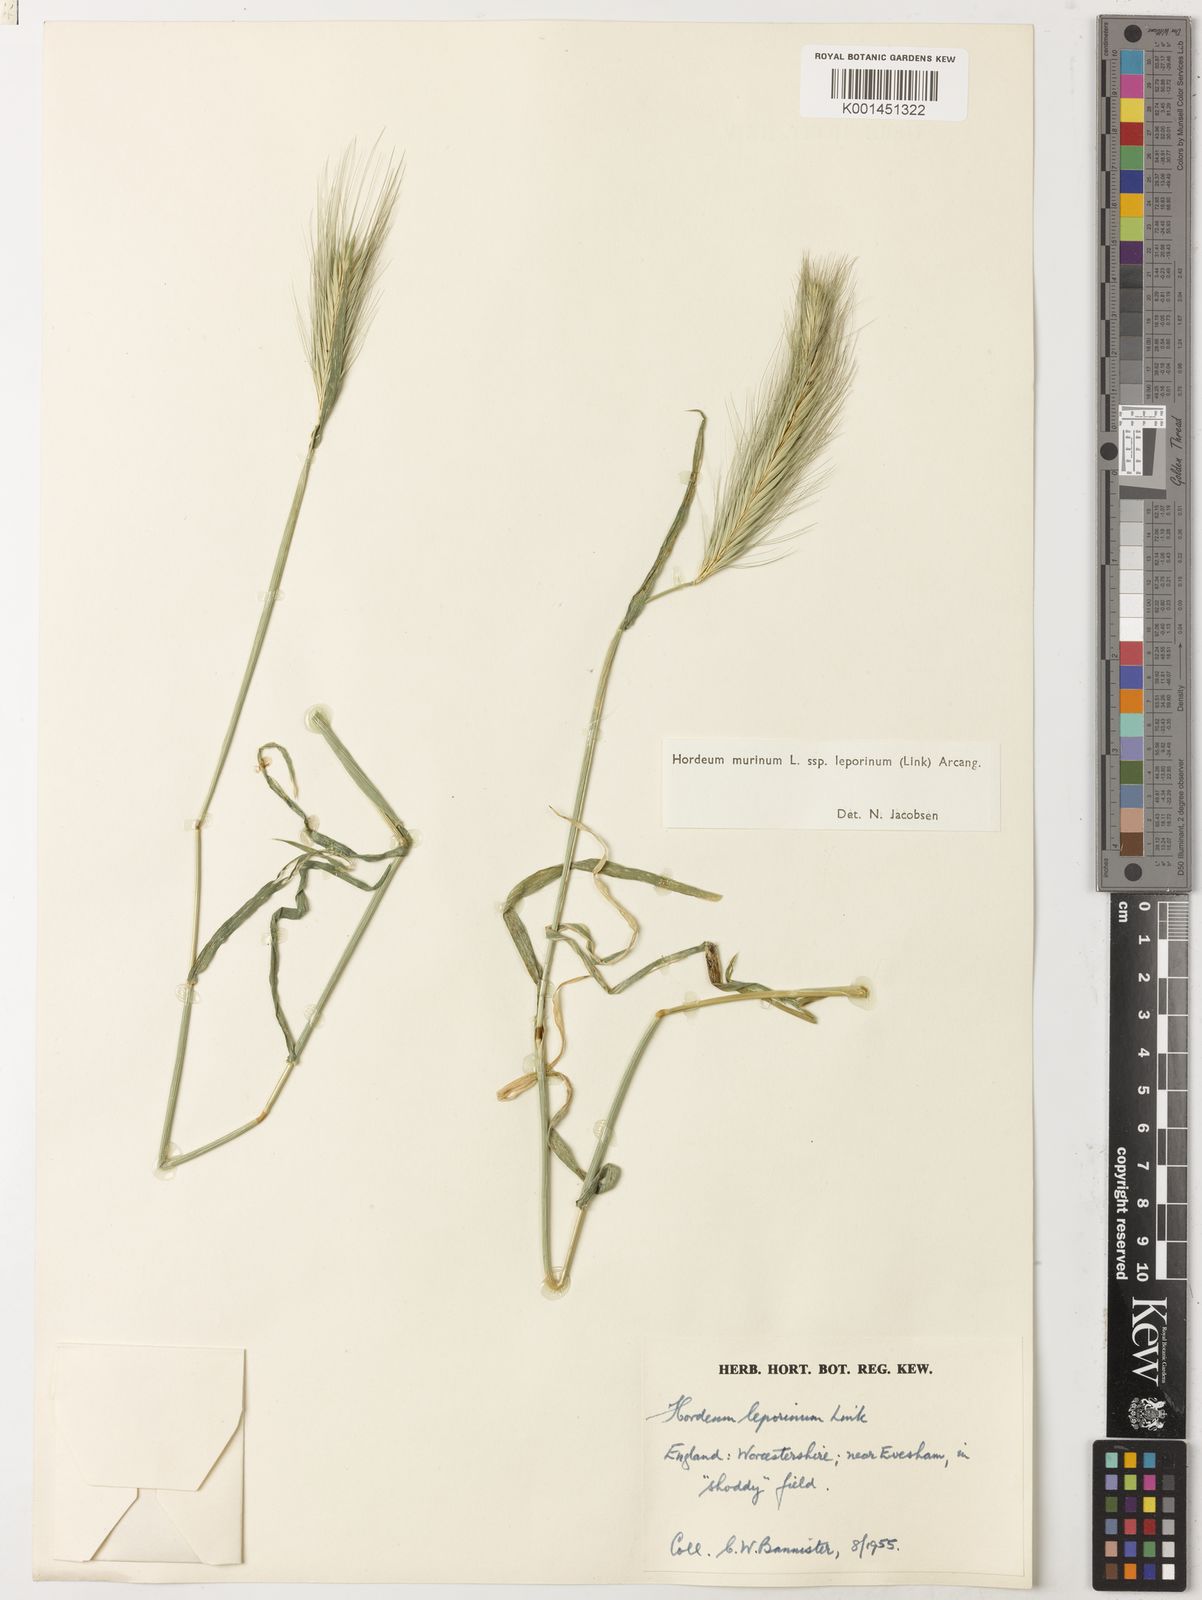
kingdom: Plantae
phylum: Tracheophyta
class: Liliopsida
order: Poales
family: Poaceae
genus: Hordeum
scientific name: Hordeum murinum
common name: Wall barley
